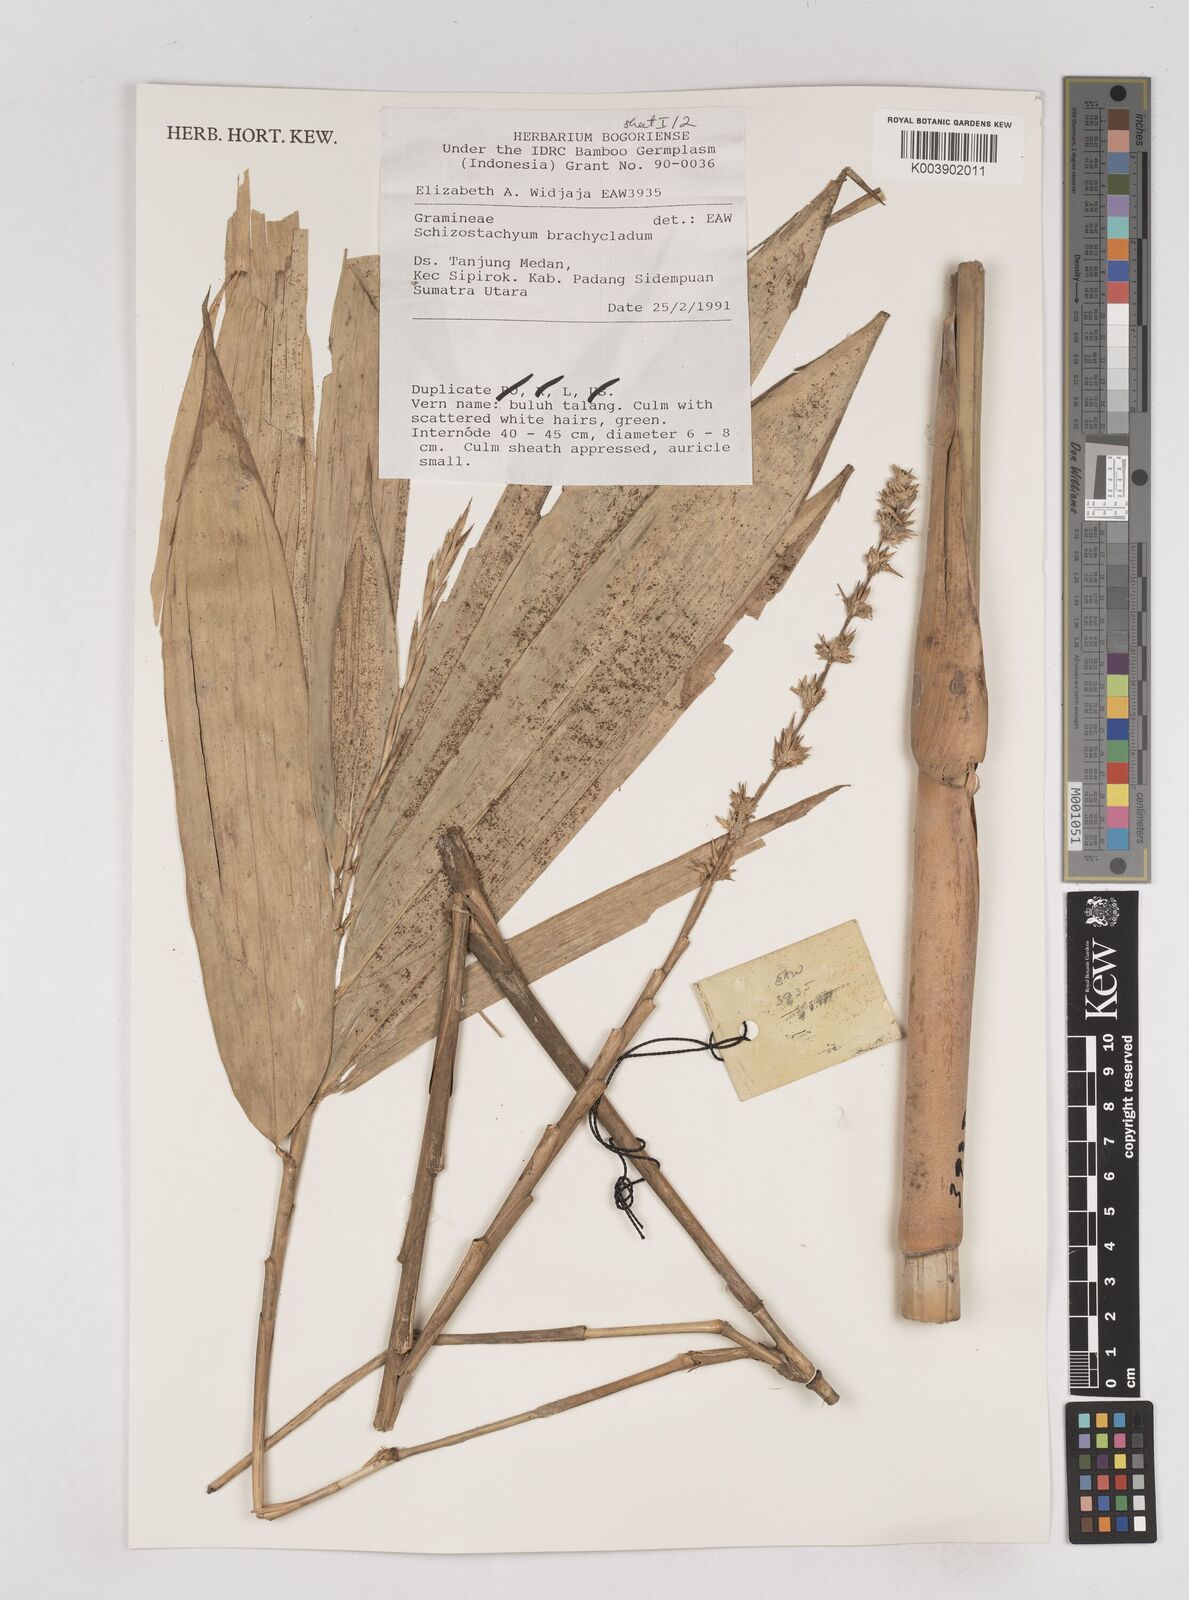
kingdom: Plantae
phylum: Tracheophyta
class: Liliopsida
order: Poales
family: Poaceae
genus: Schizostachyum
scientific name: Schizostachyum brachycladum
